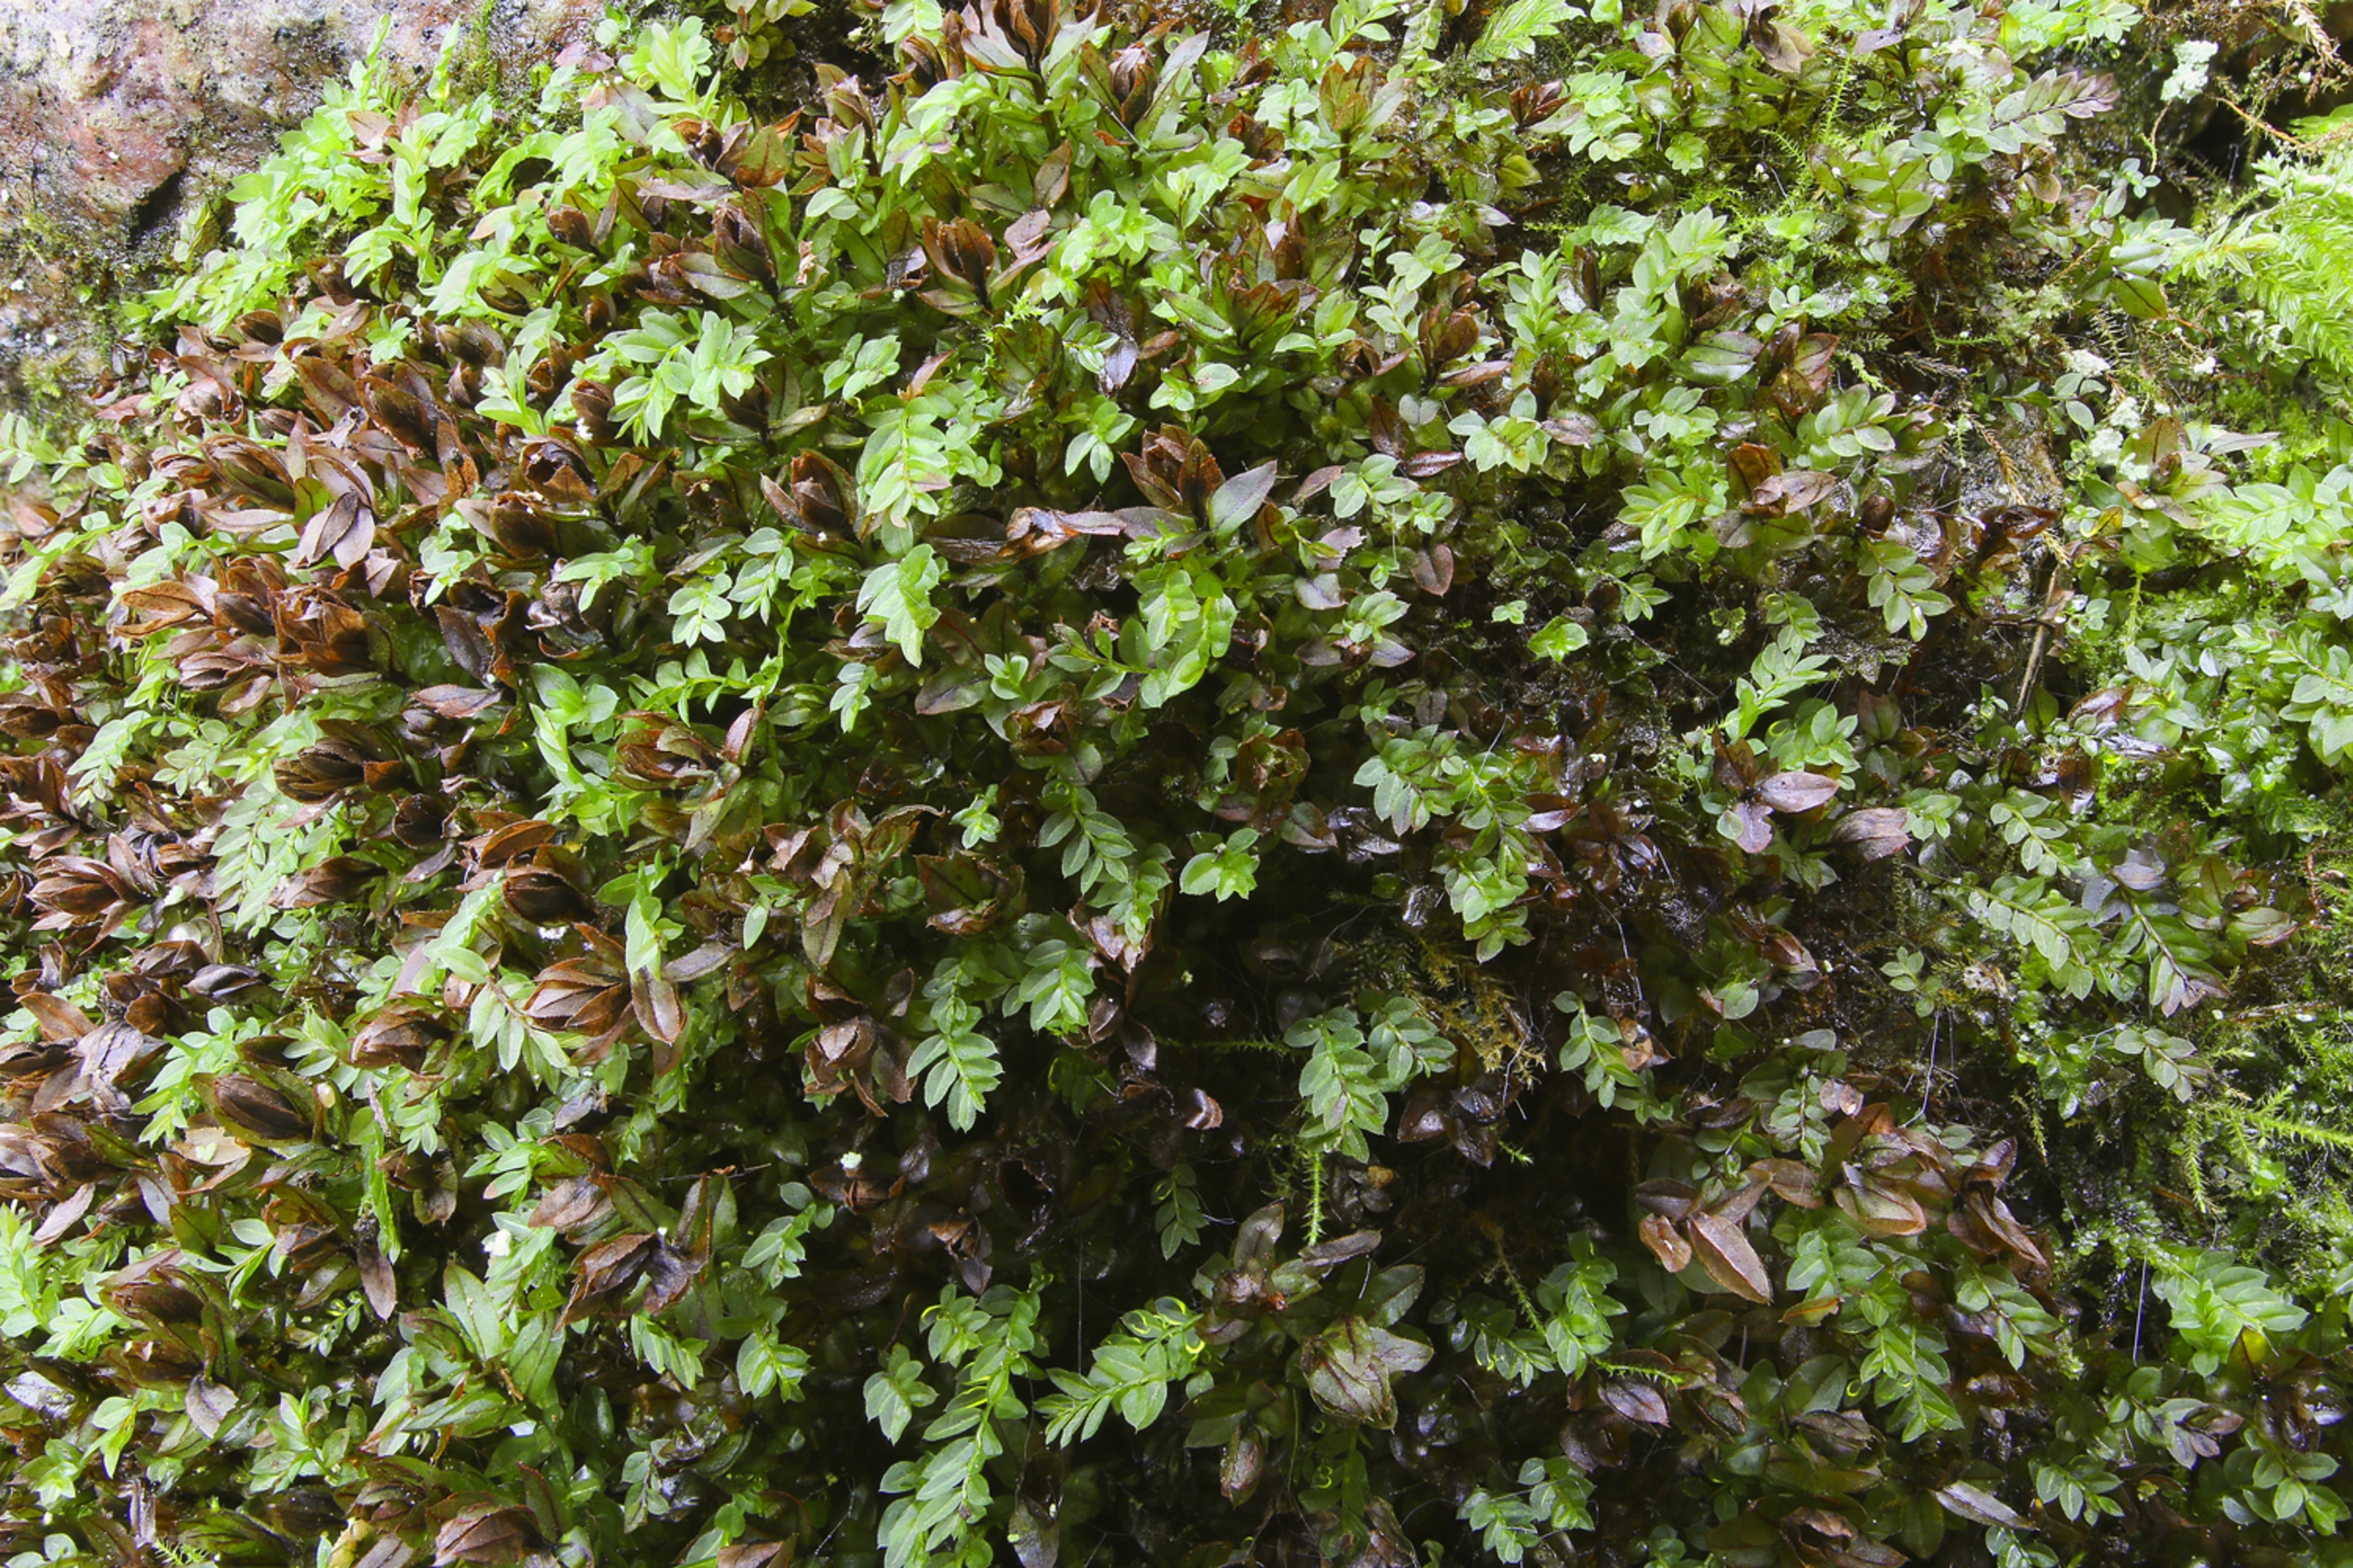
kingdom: Plantae
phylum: Bryophyta
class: Bryopsida
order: Bryales
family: Mniaceae
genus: Mnium
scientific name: Mnium stellare
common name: Indigo stjernemos
